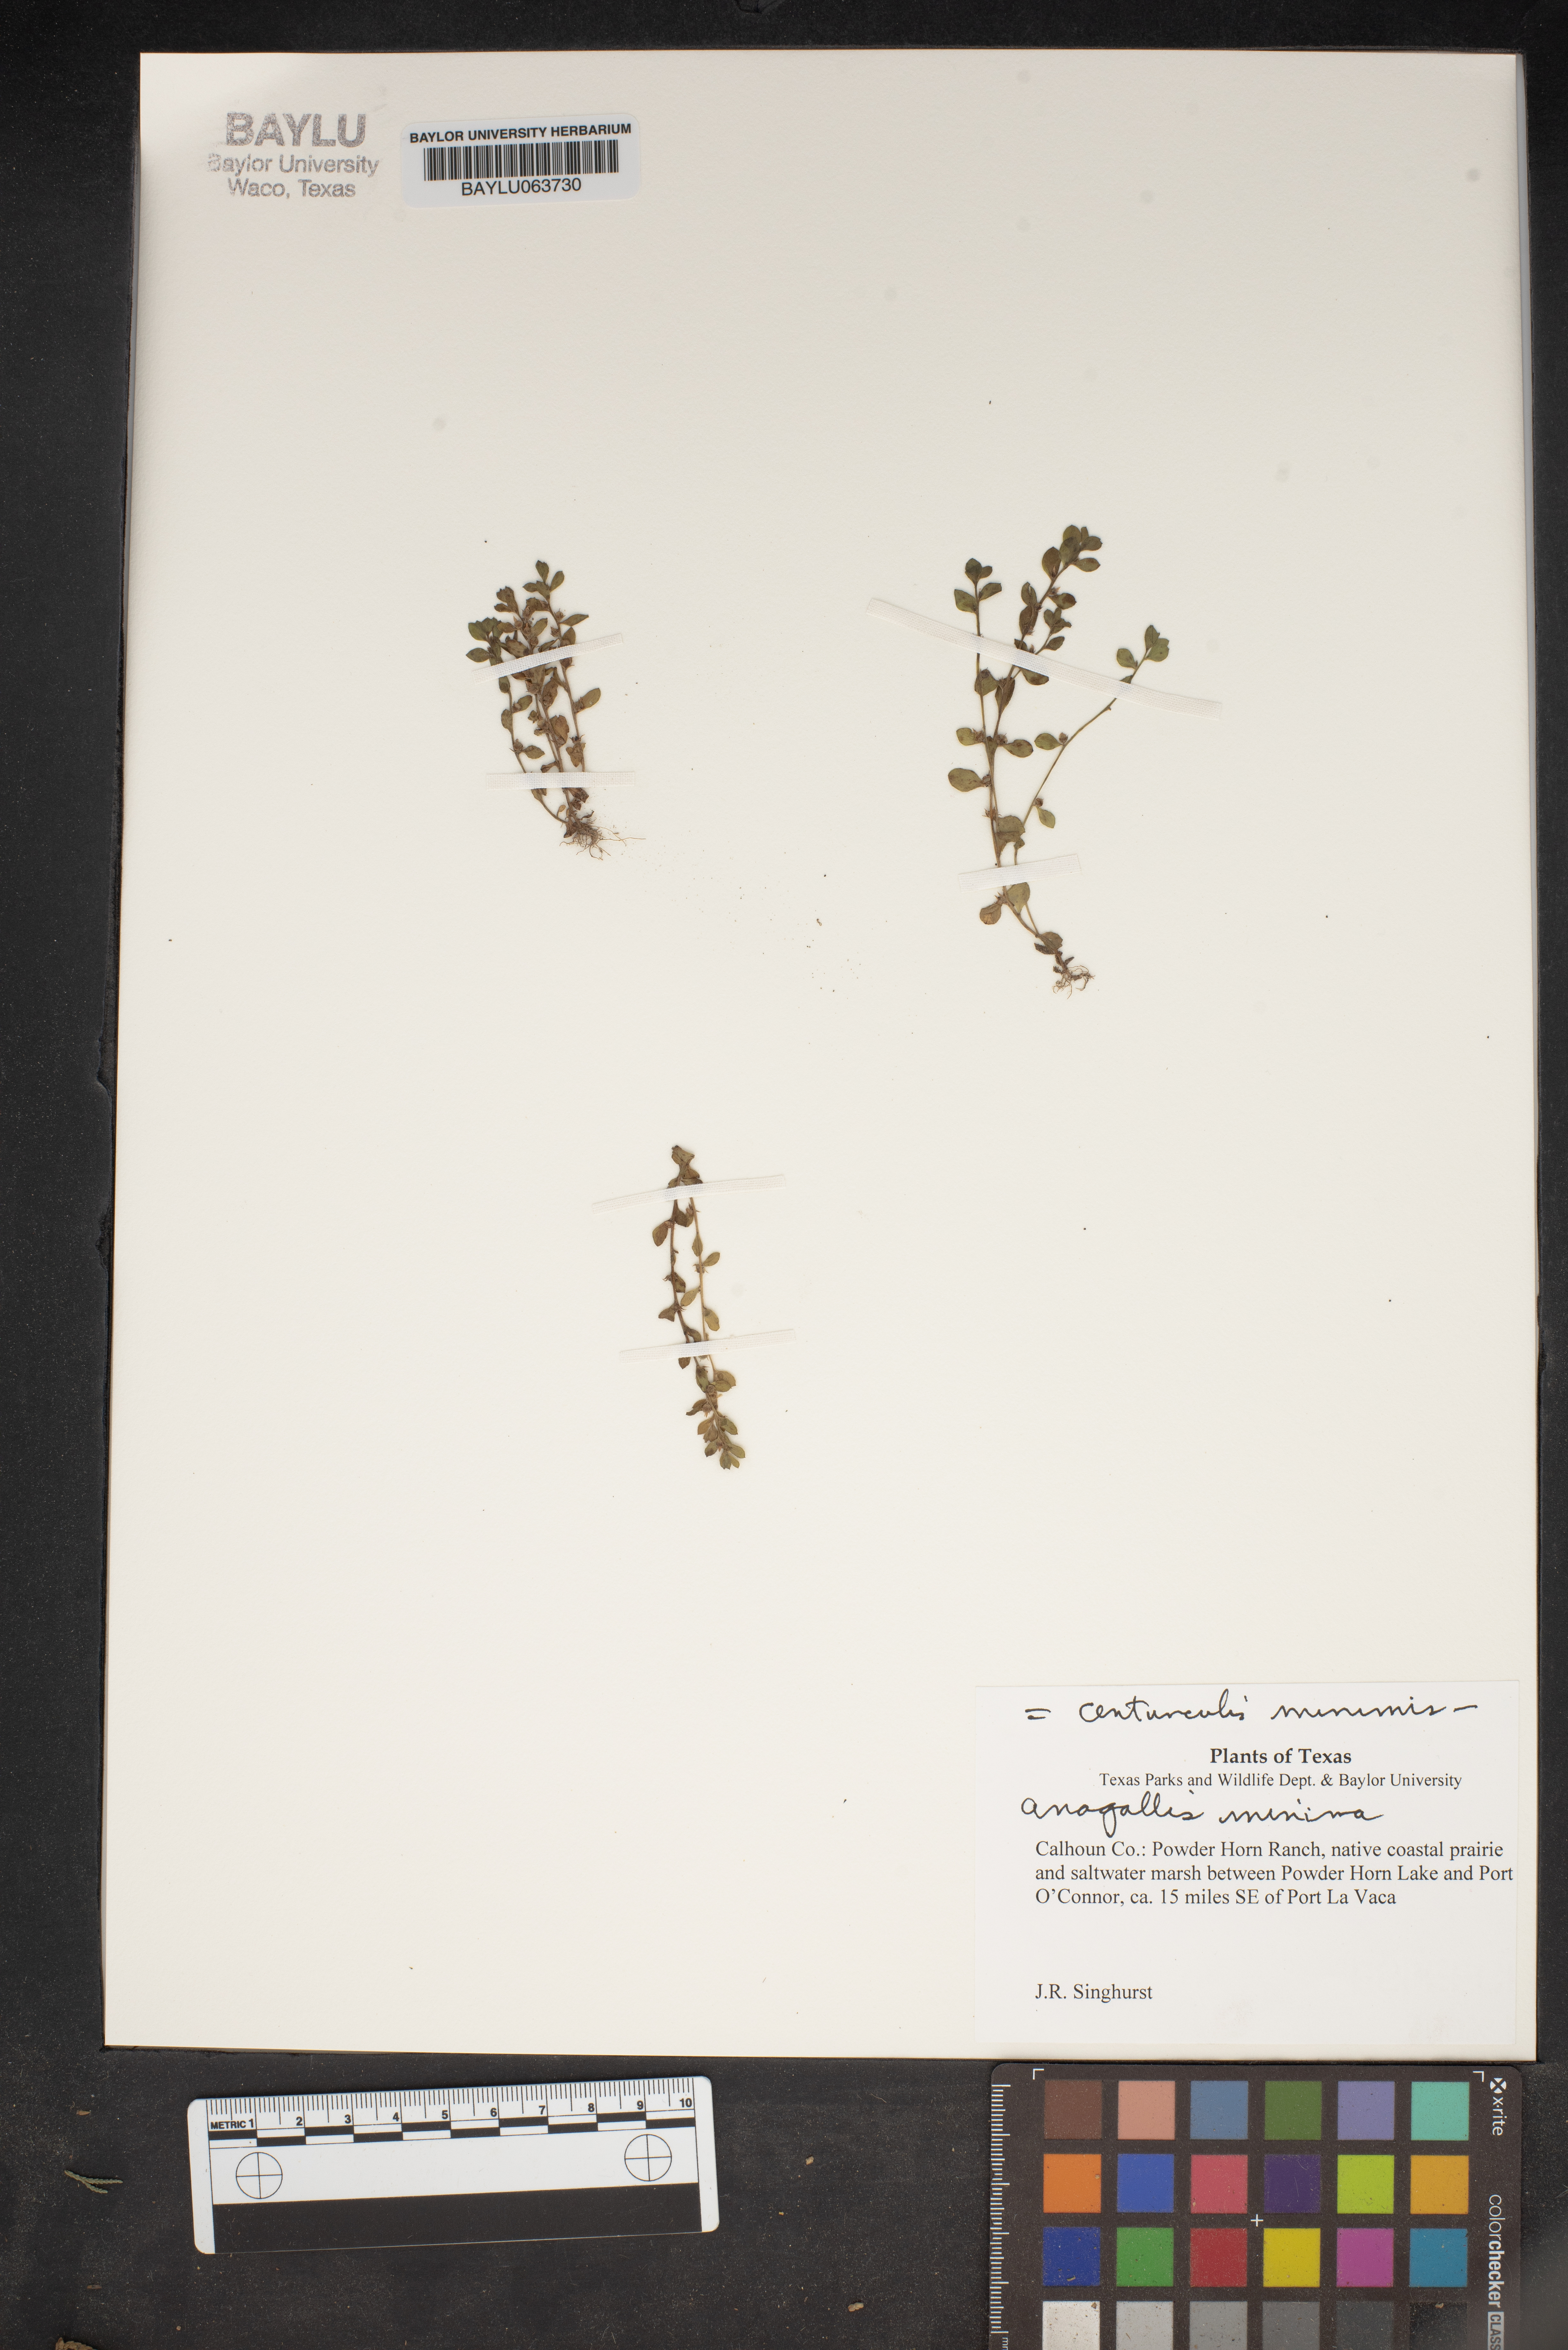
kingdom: Plantae
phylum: Tracheophyta
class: Magnoliopsida
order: Ericales
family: Primulaceae
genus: Lysimachia
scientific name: Lysimachia minima
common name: Chaffweed
